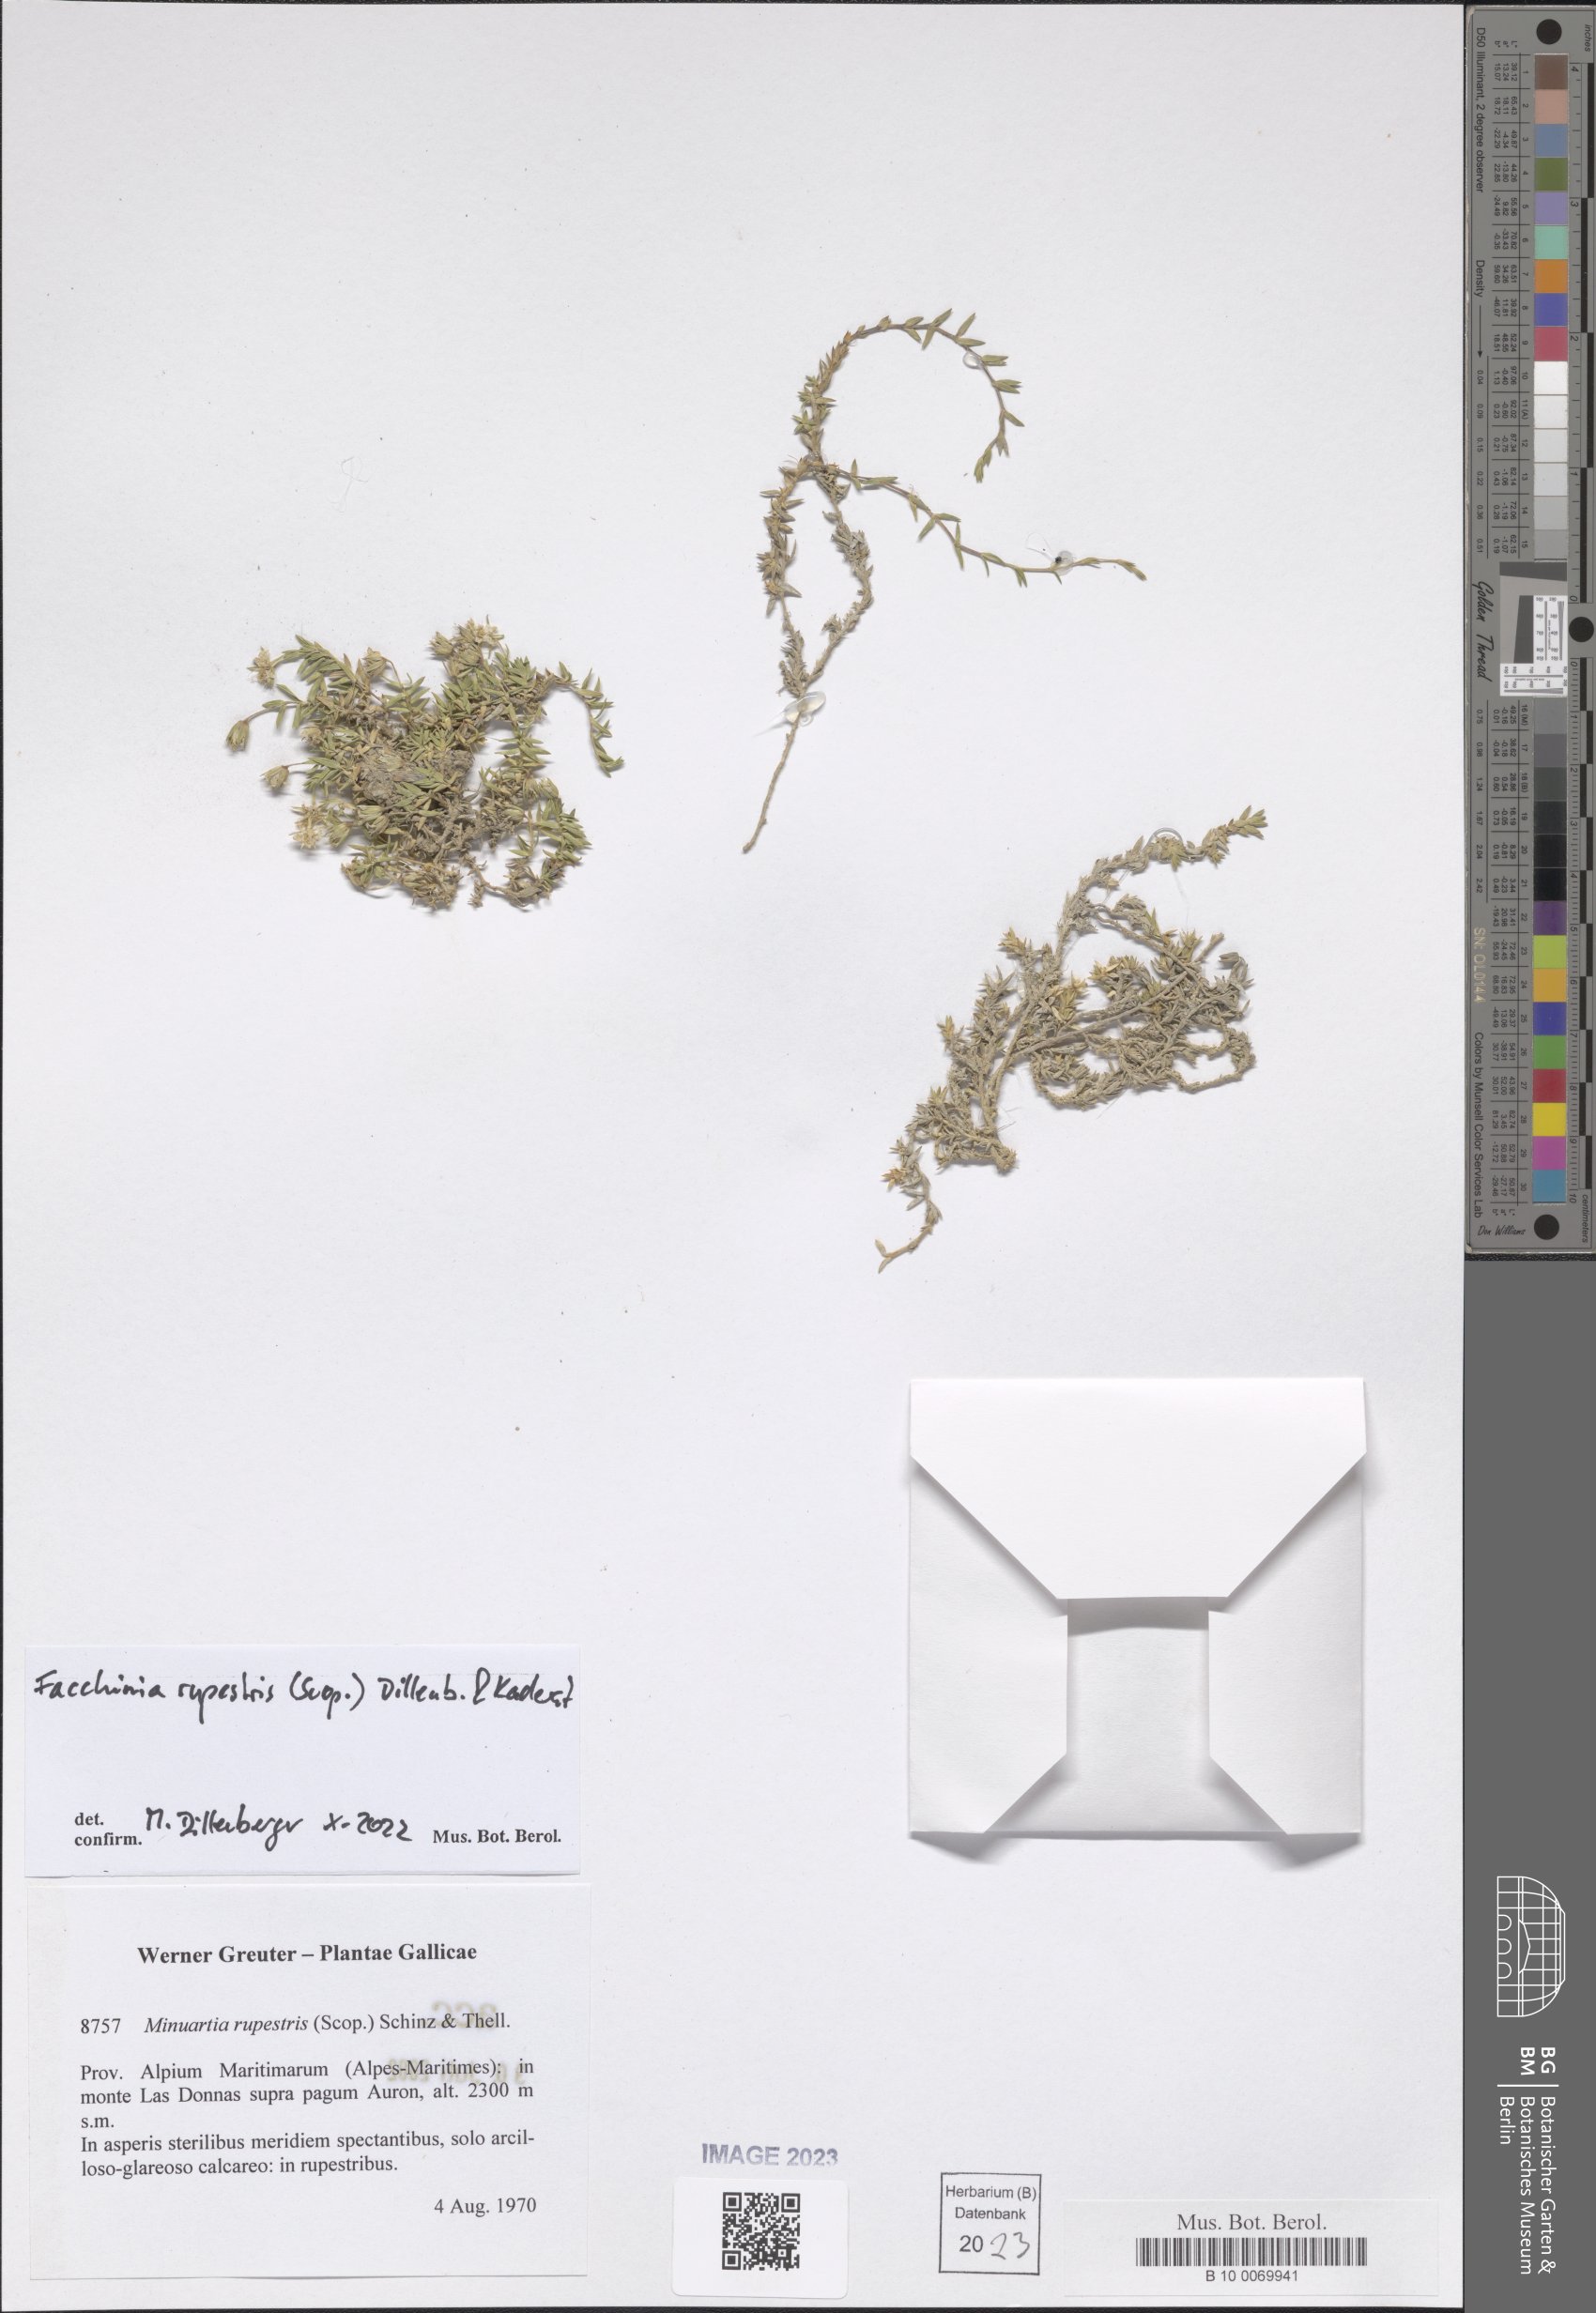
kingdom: Plantae
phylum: Tracheophyta
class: Magnoliopsida
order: Caryophyllales
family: Caryophyllaceae
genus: Facchinia
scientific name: Facchinia rupestris
